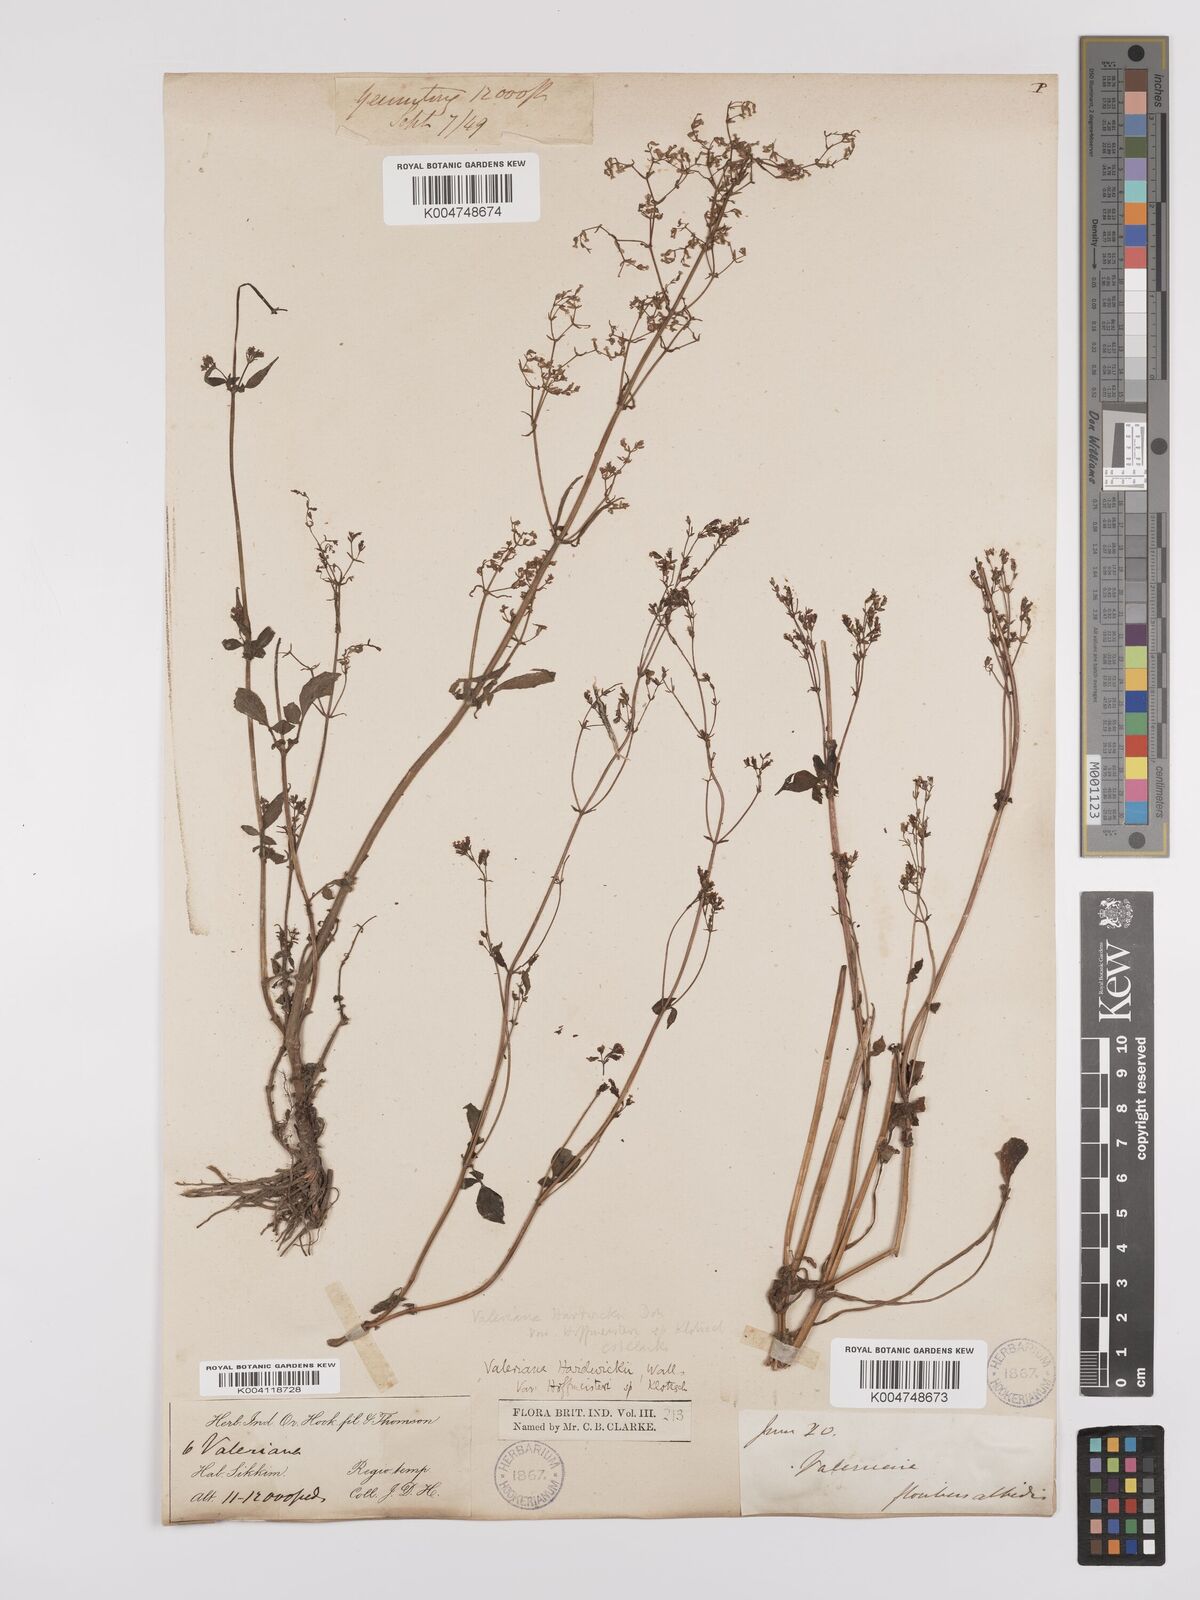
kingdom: Plantae
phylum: Tracheophyta
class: Magnoliopsida
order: Dipsacales
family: Caprifoliaceae
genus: Valeriana
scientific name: Valeriana hardwickei
